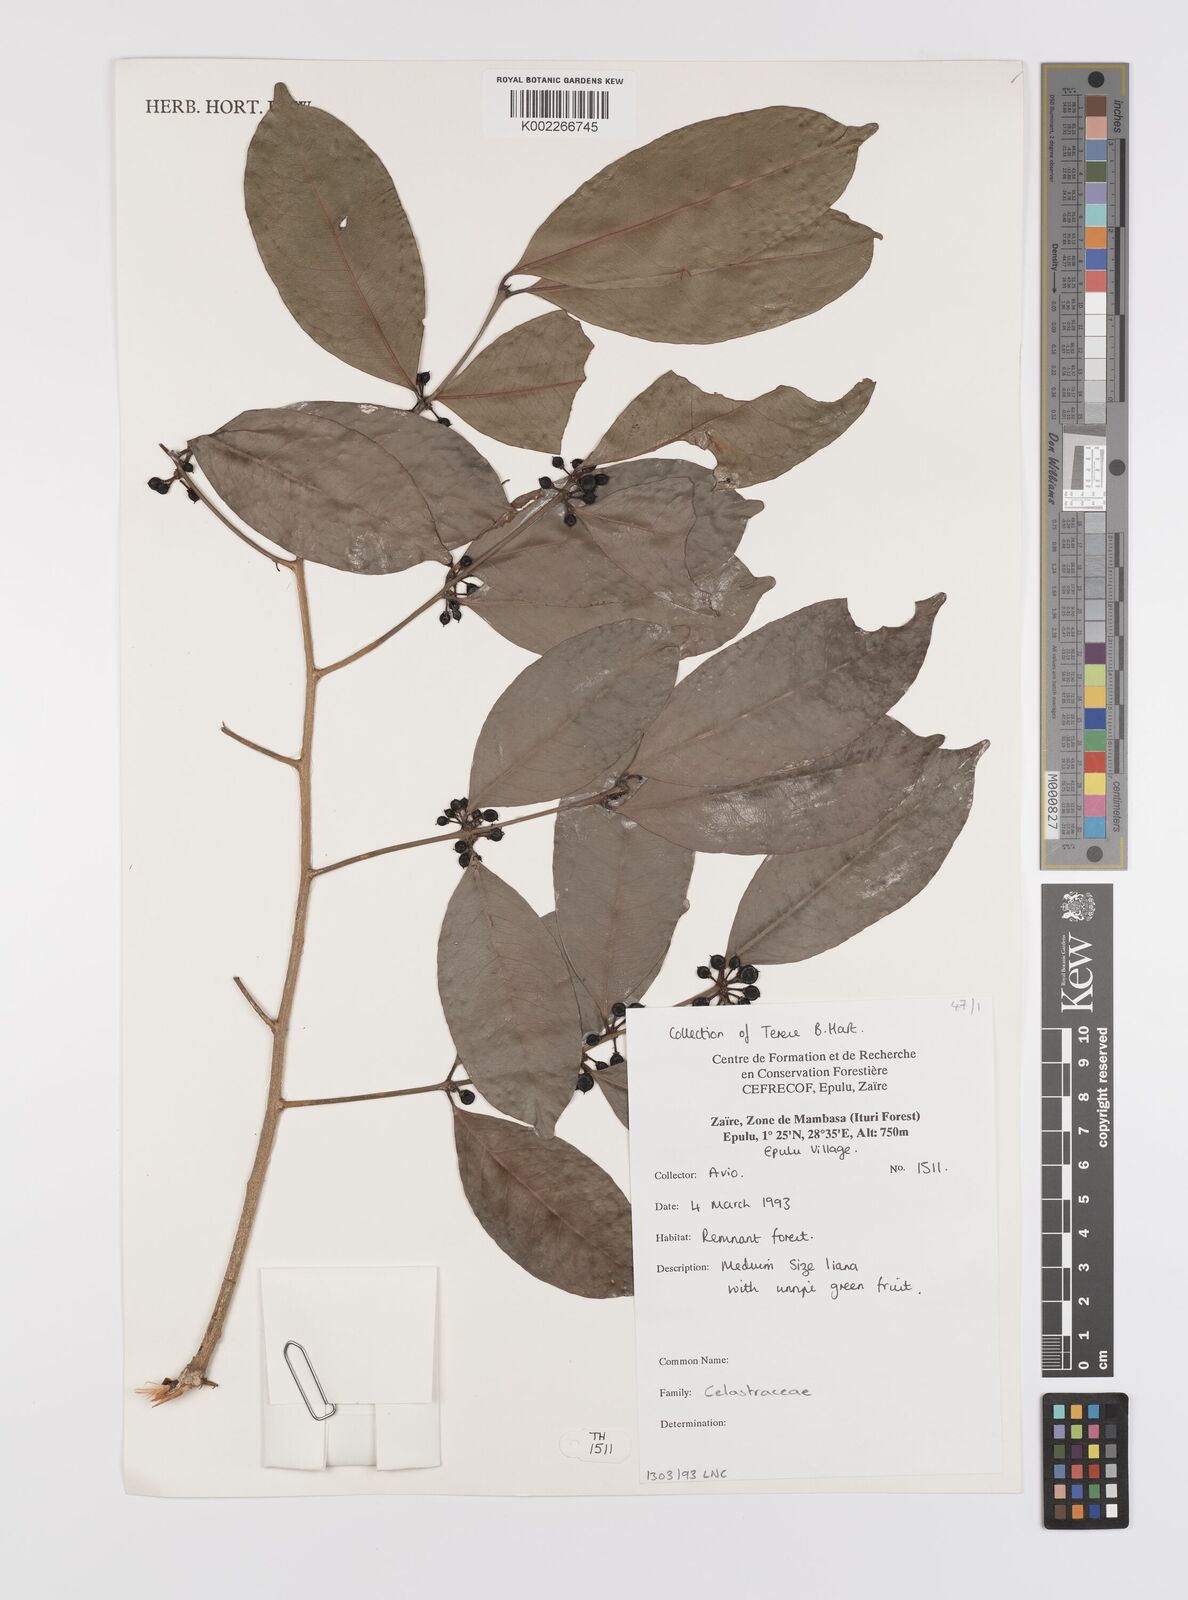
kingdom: Plantae
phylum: Tracheophyta
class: Magnoliopsida
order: Celastrales
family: Celastraceae
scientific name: Celastraceae
